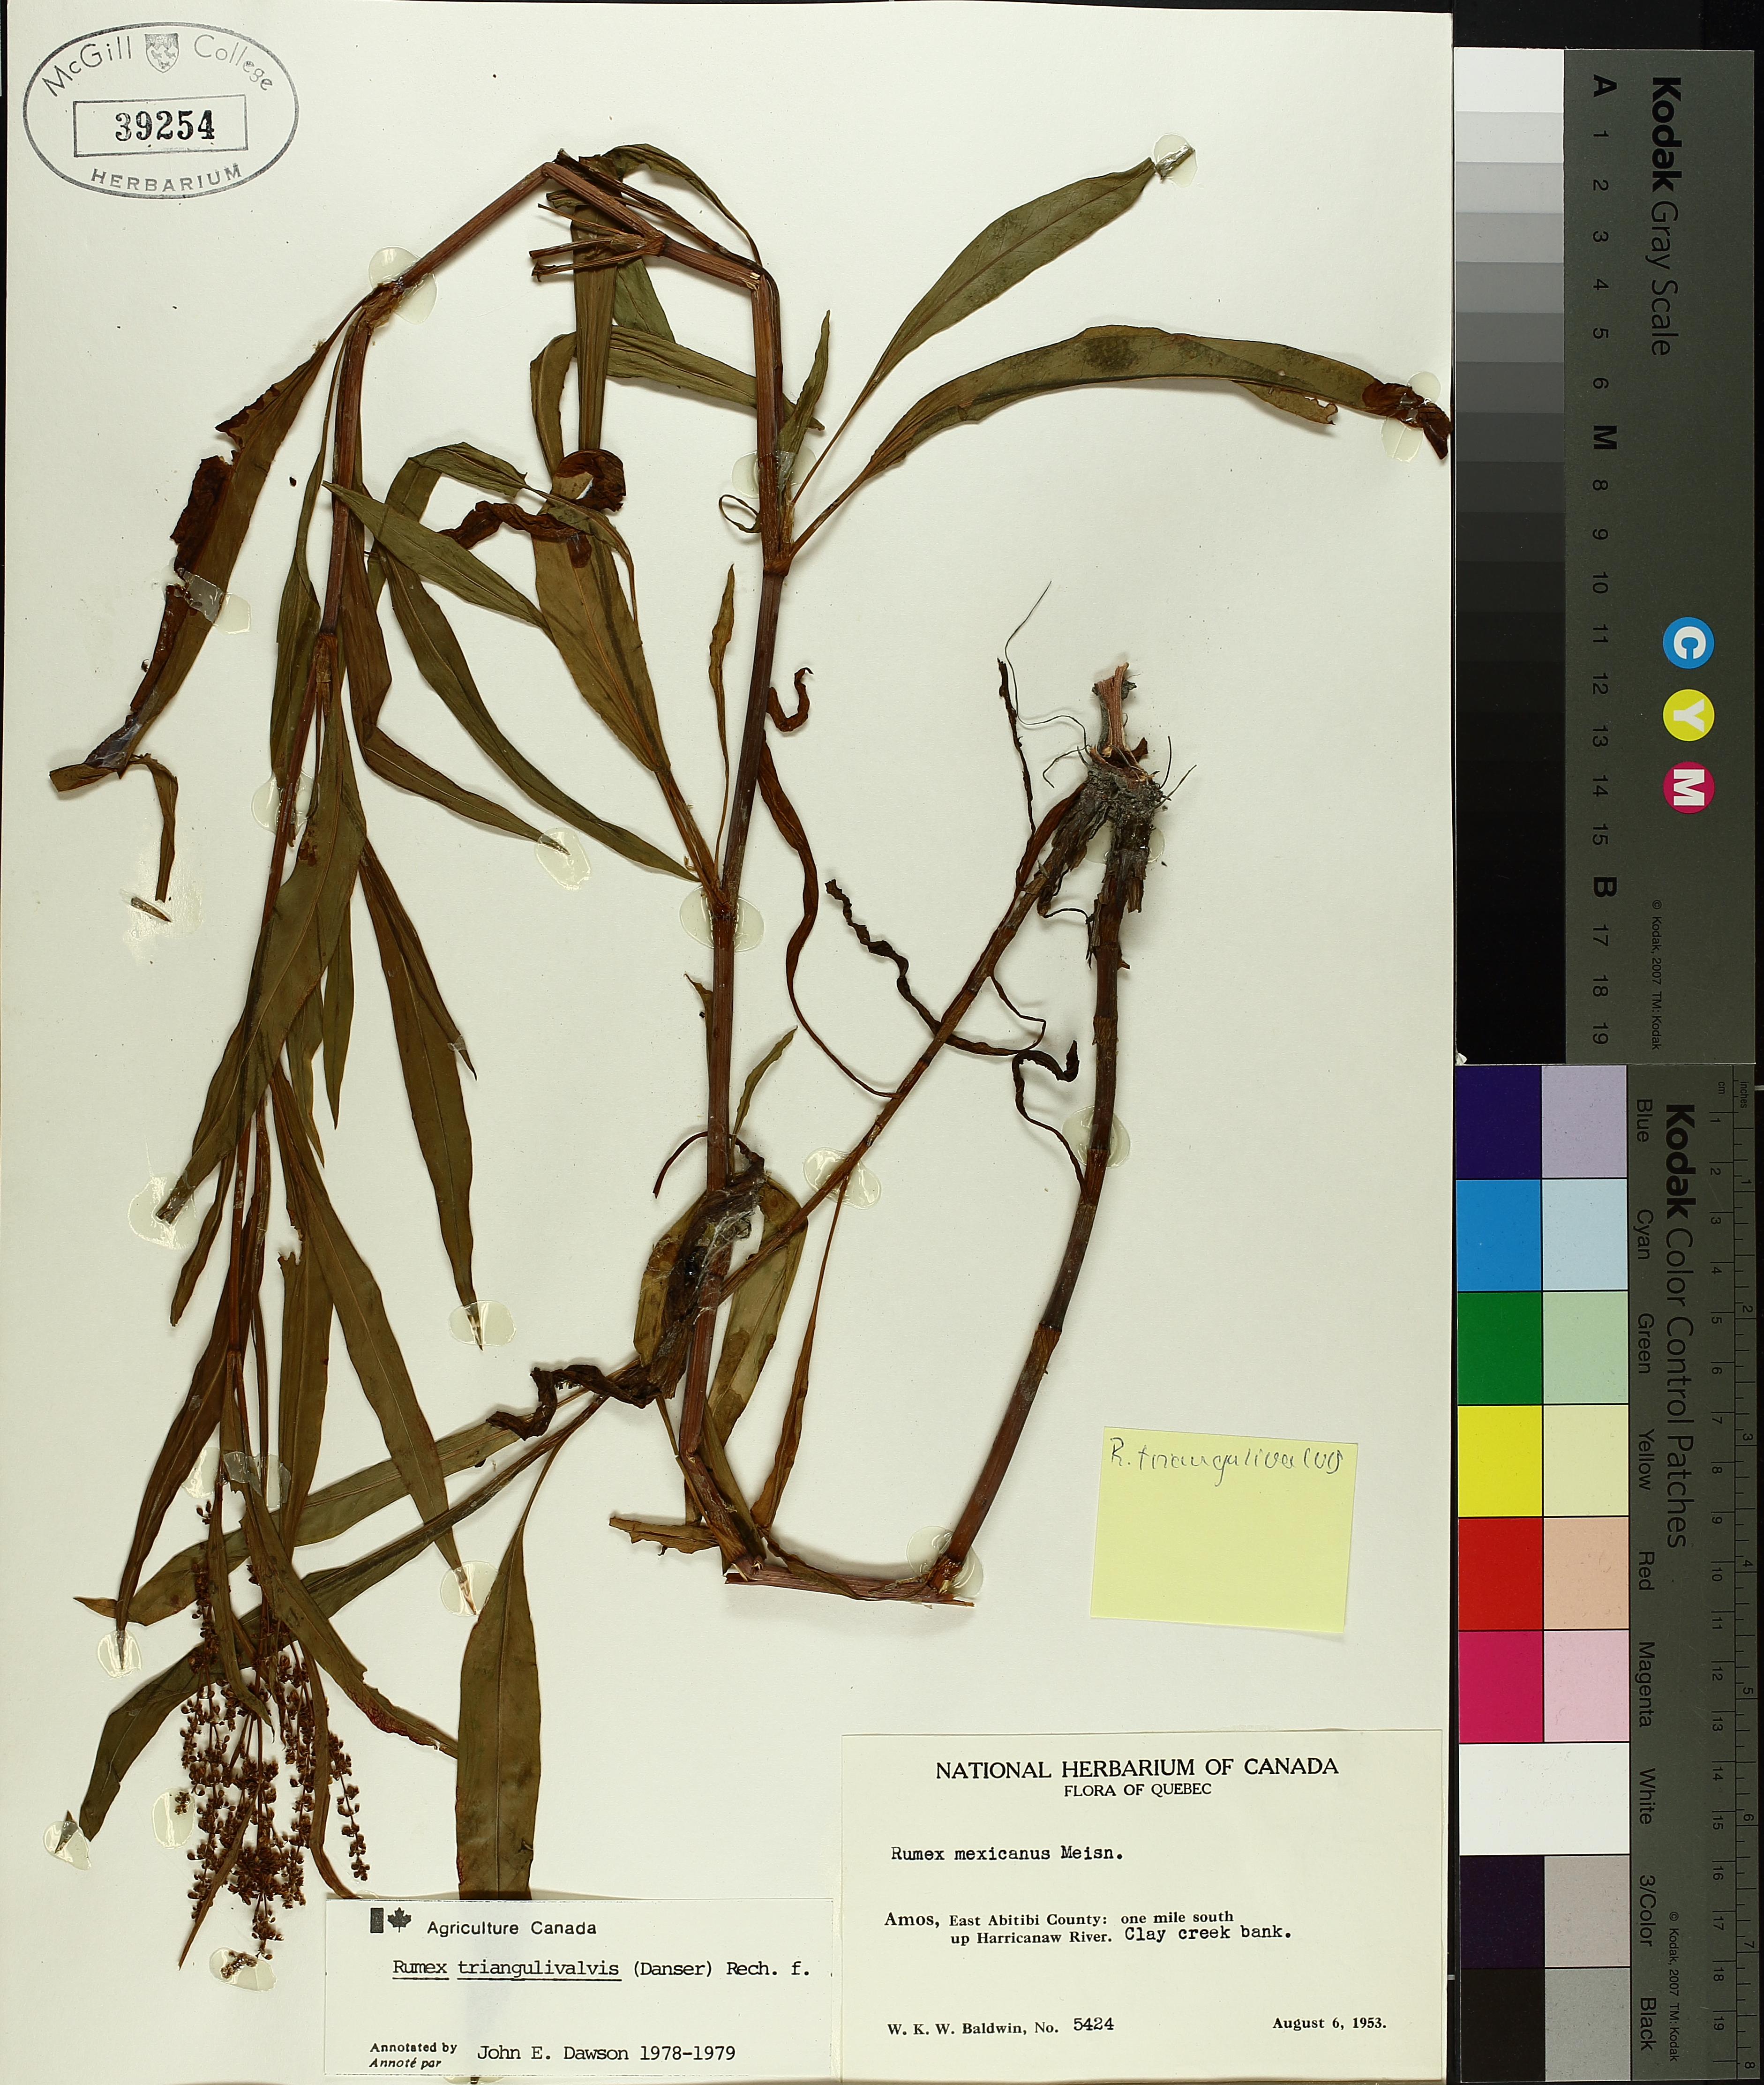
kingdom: Plantae
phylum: Tracheophyta
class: Magnoliopsida
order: Caryophyllales
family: Polygonaceae
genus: Rumex
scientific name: Rumex triangulivalvis
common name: Triangular-valve dock
